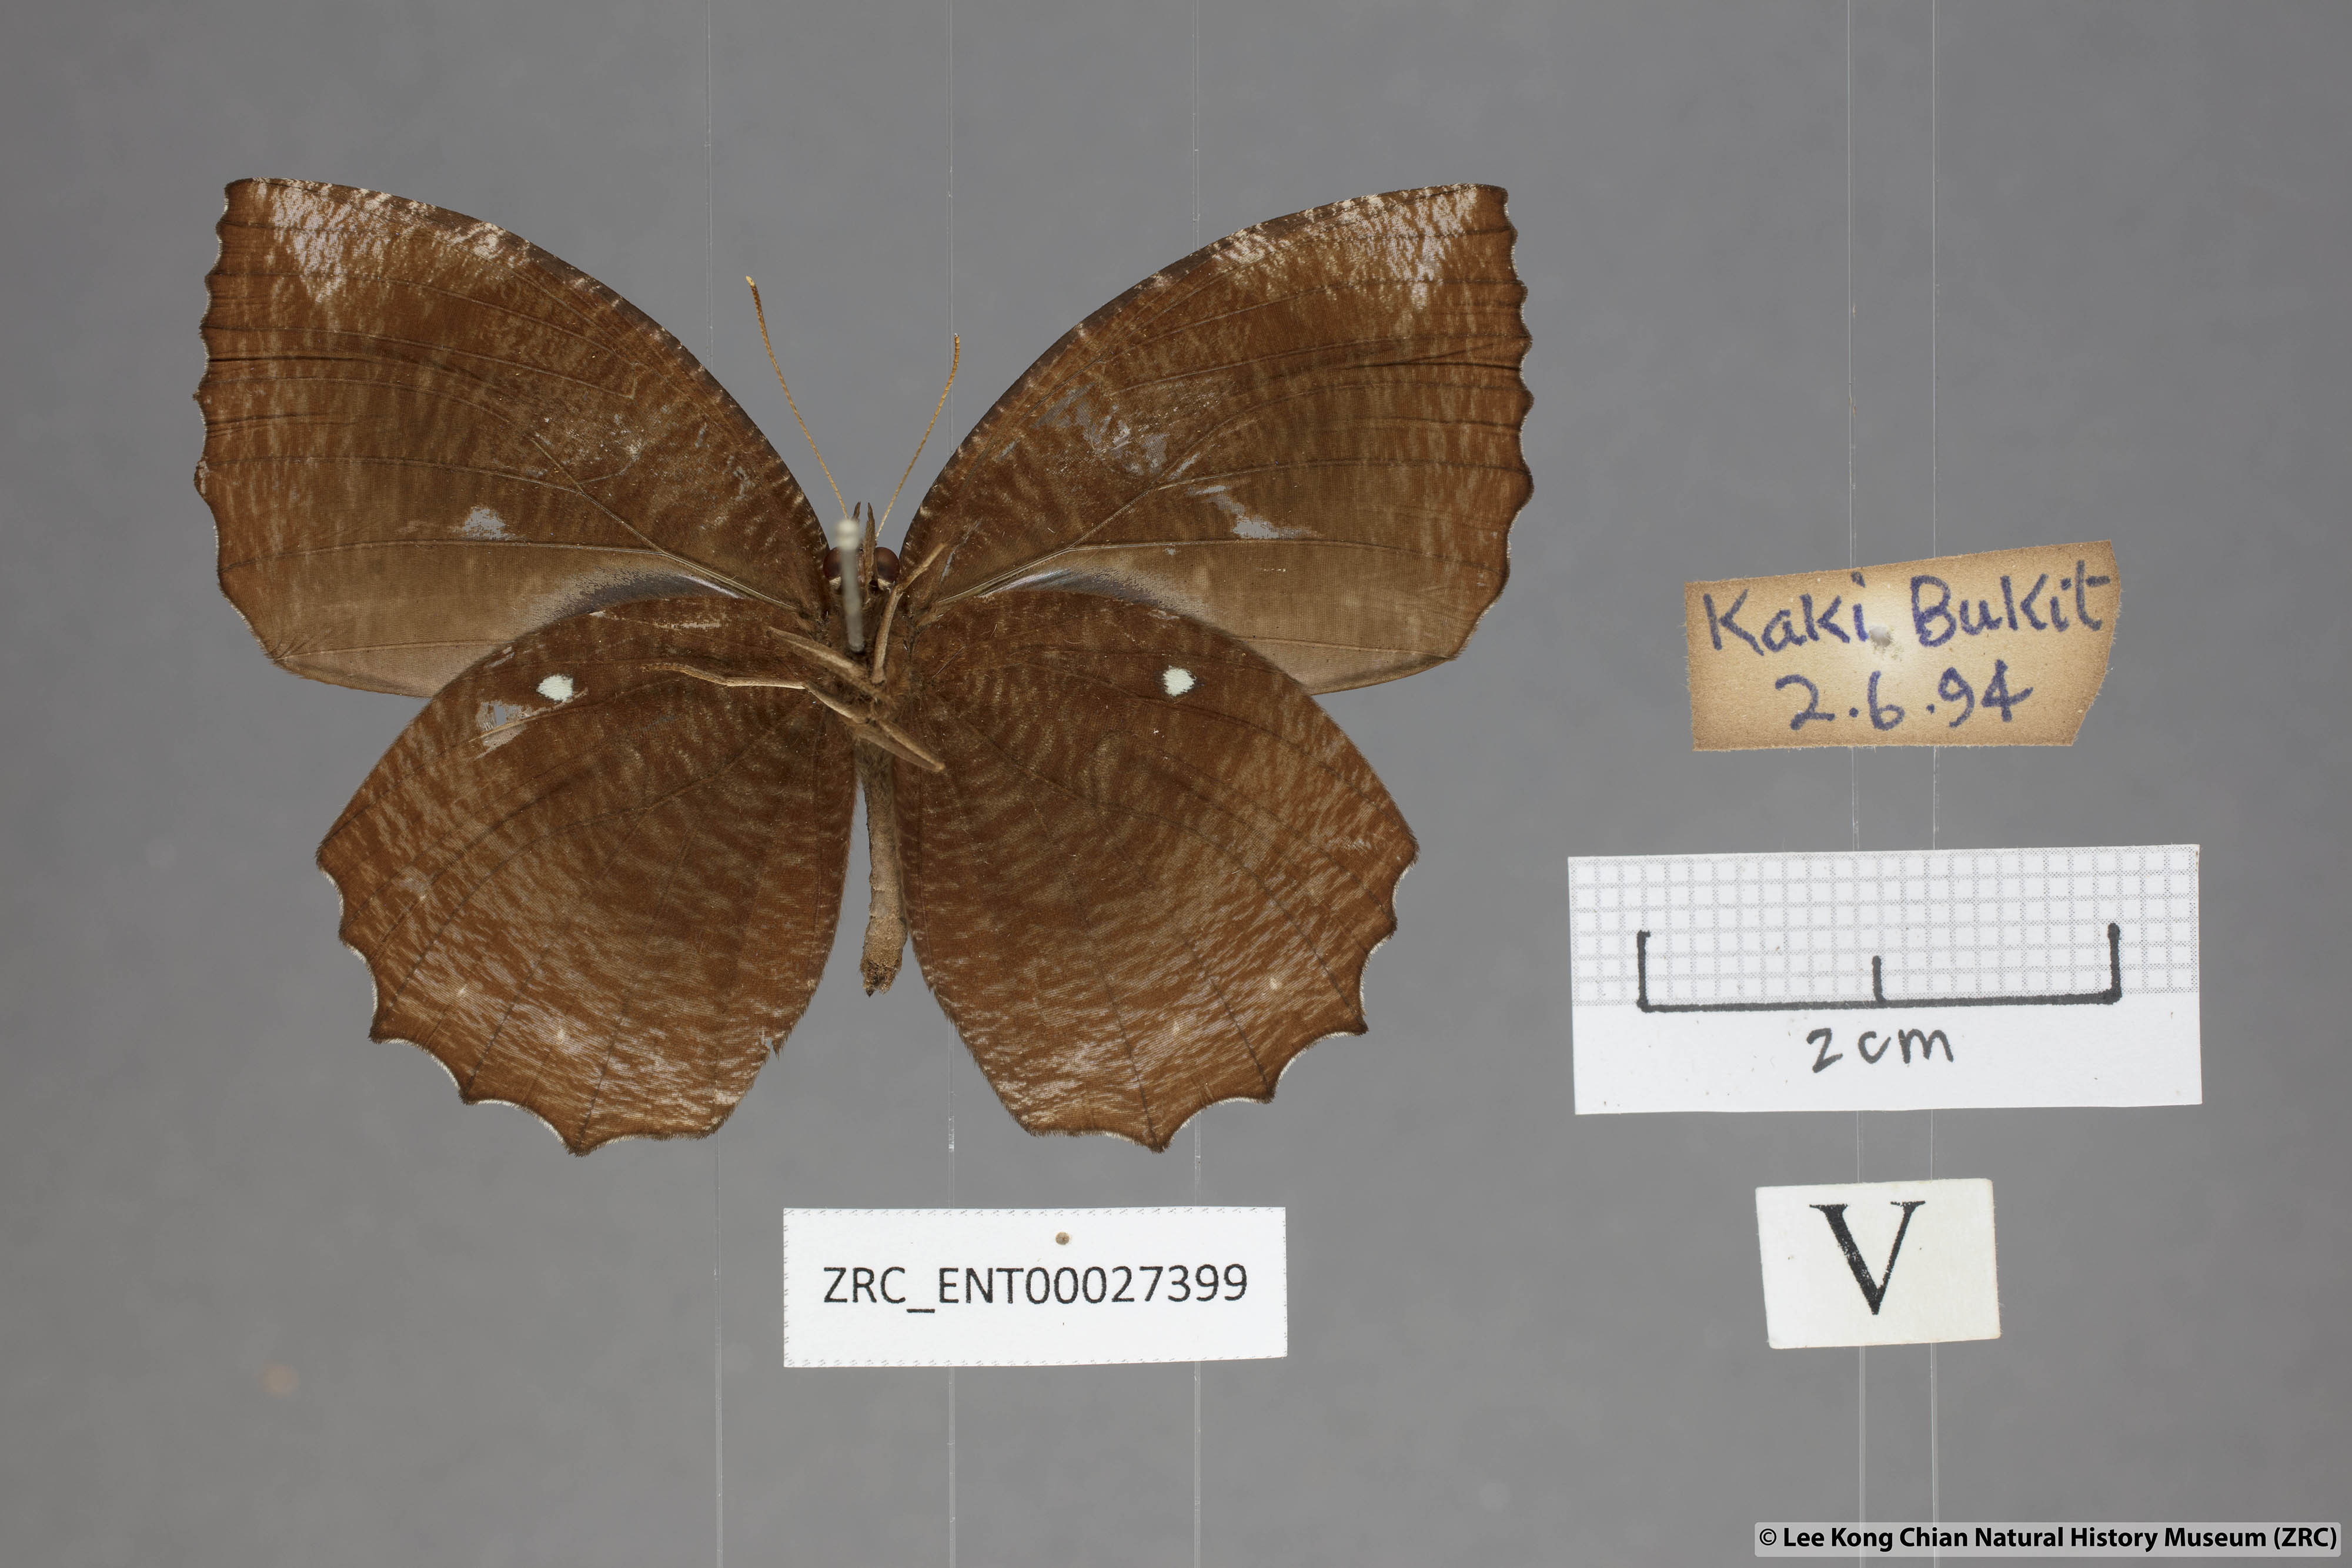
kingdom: Animalia
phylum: Arthropoda
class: Insecta
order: Lepidoptera
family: Nymphalidae
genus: Elymnias
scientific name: Elymnias hypermnestra
